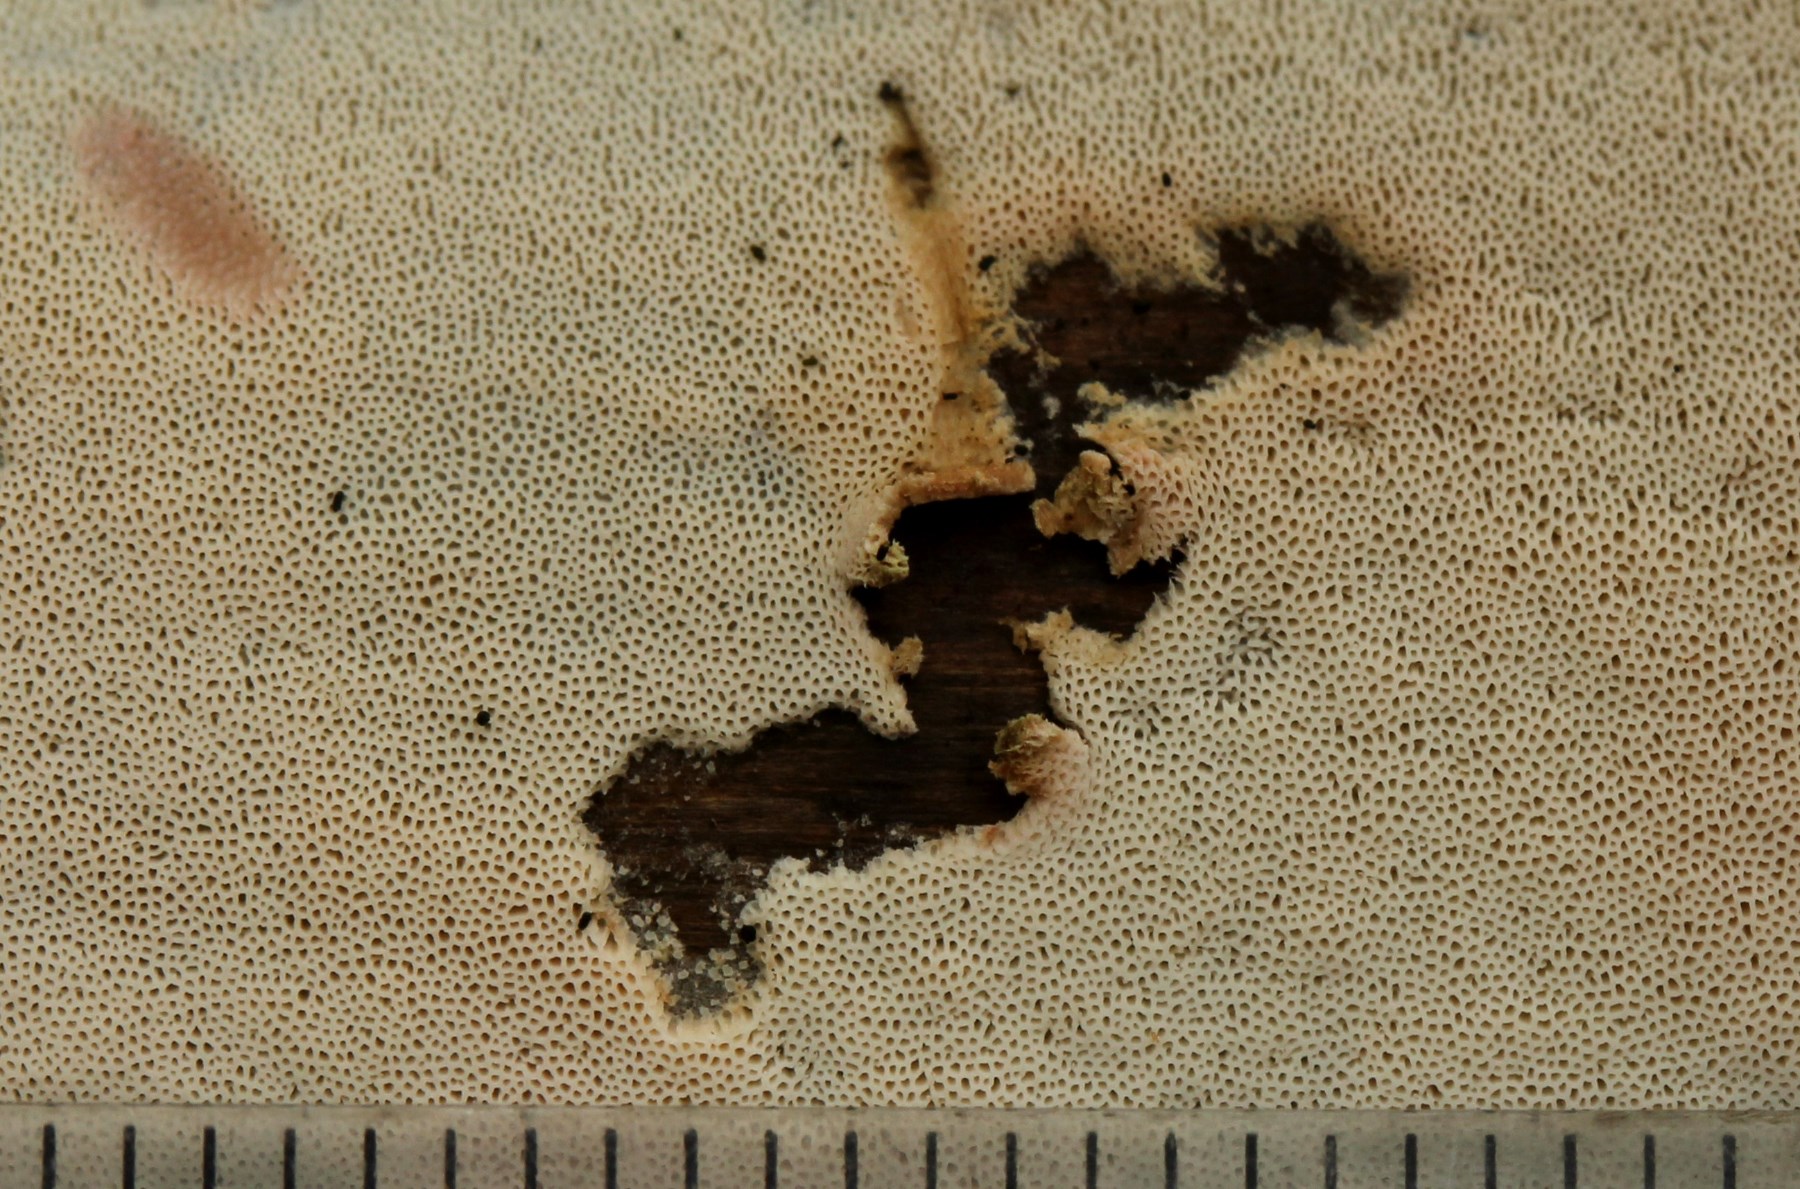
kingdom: Fungi
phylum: Basidiomycota
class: Agaricomycetes
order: Polyporales
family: Irpicaceae
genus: Ceriporia
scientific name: Ceriporia
